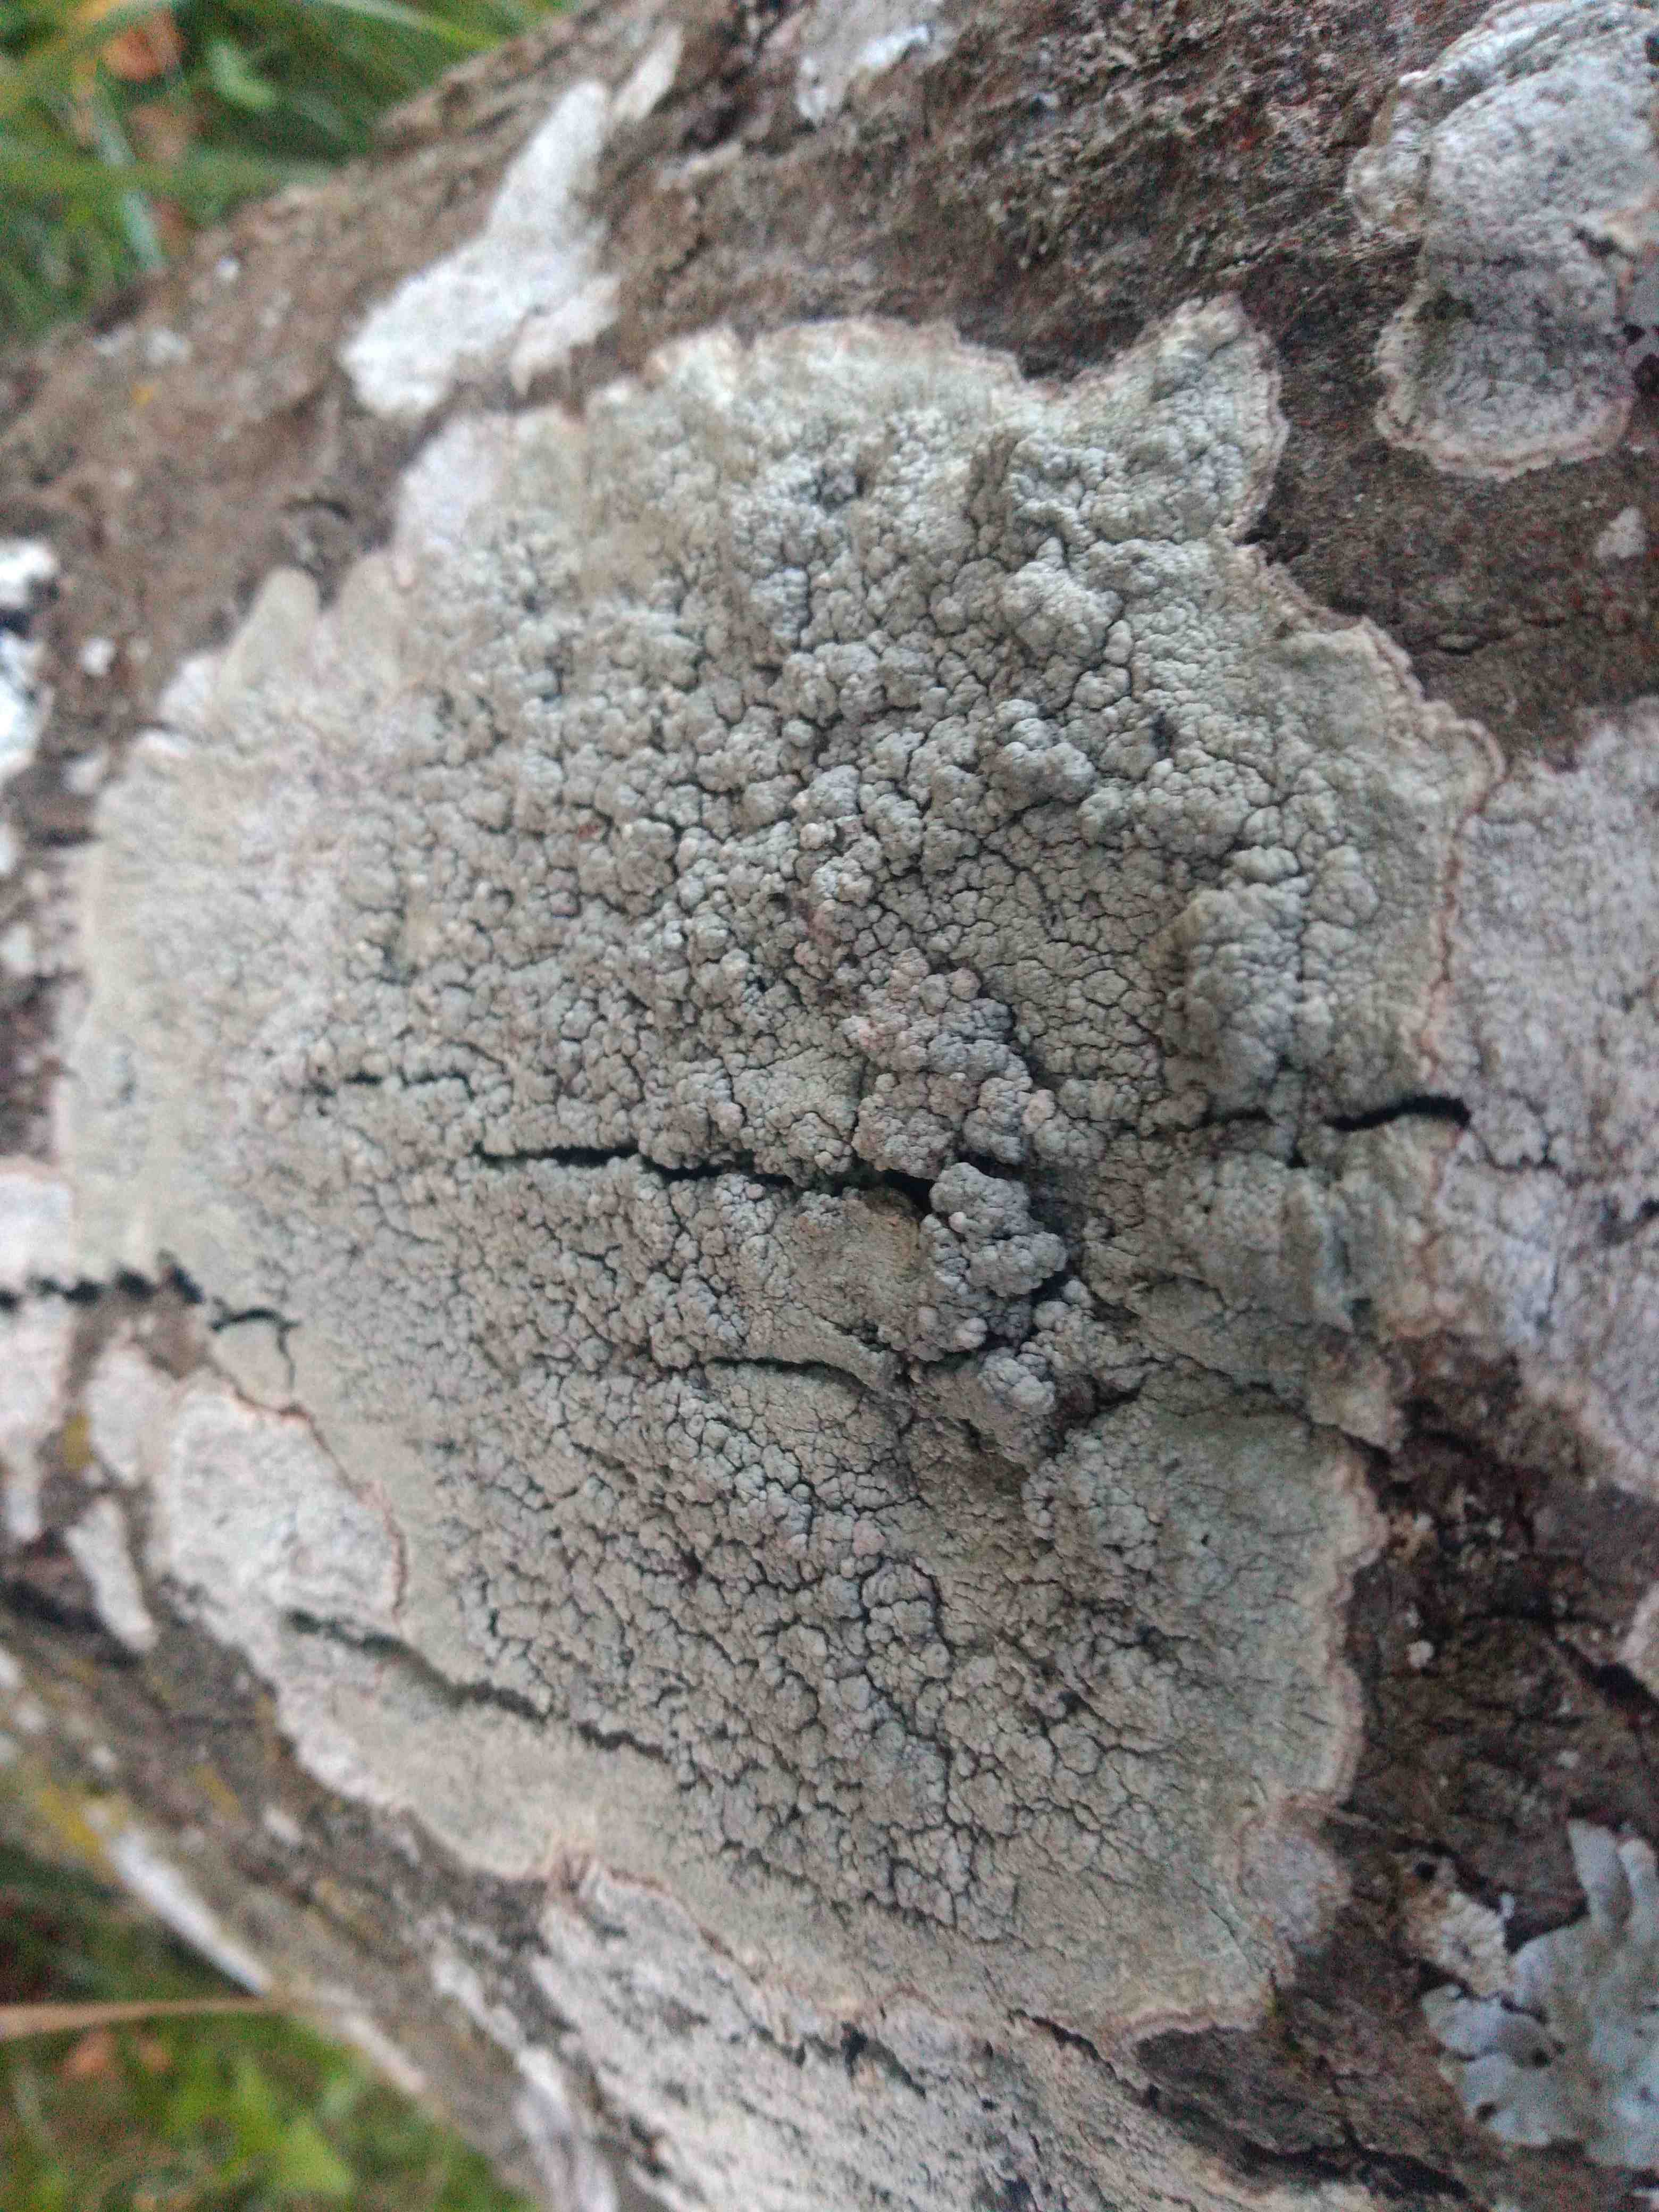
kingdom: Fungi
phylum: Ascomycota
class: Lecanoromycetes
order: Pertusariales
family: Pertusariaceae
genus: Pertusaria
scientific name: Pertusaria pertusa
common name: almindelig prikvortelav
